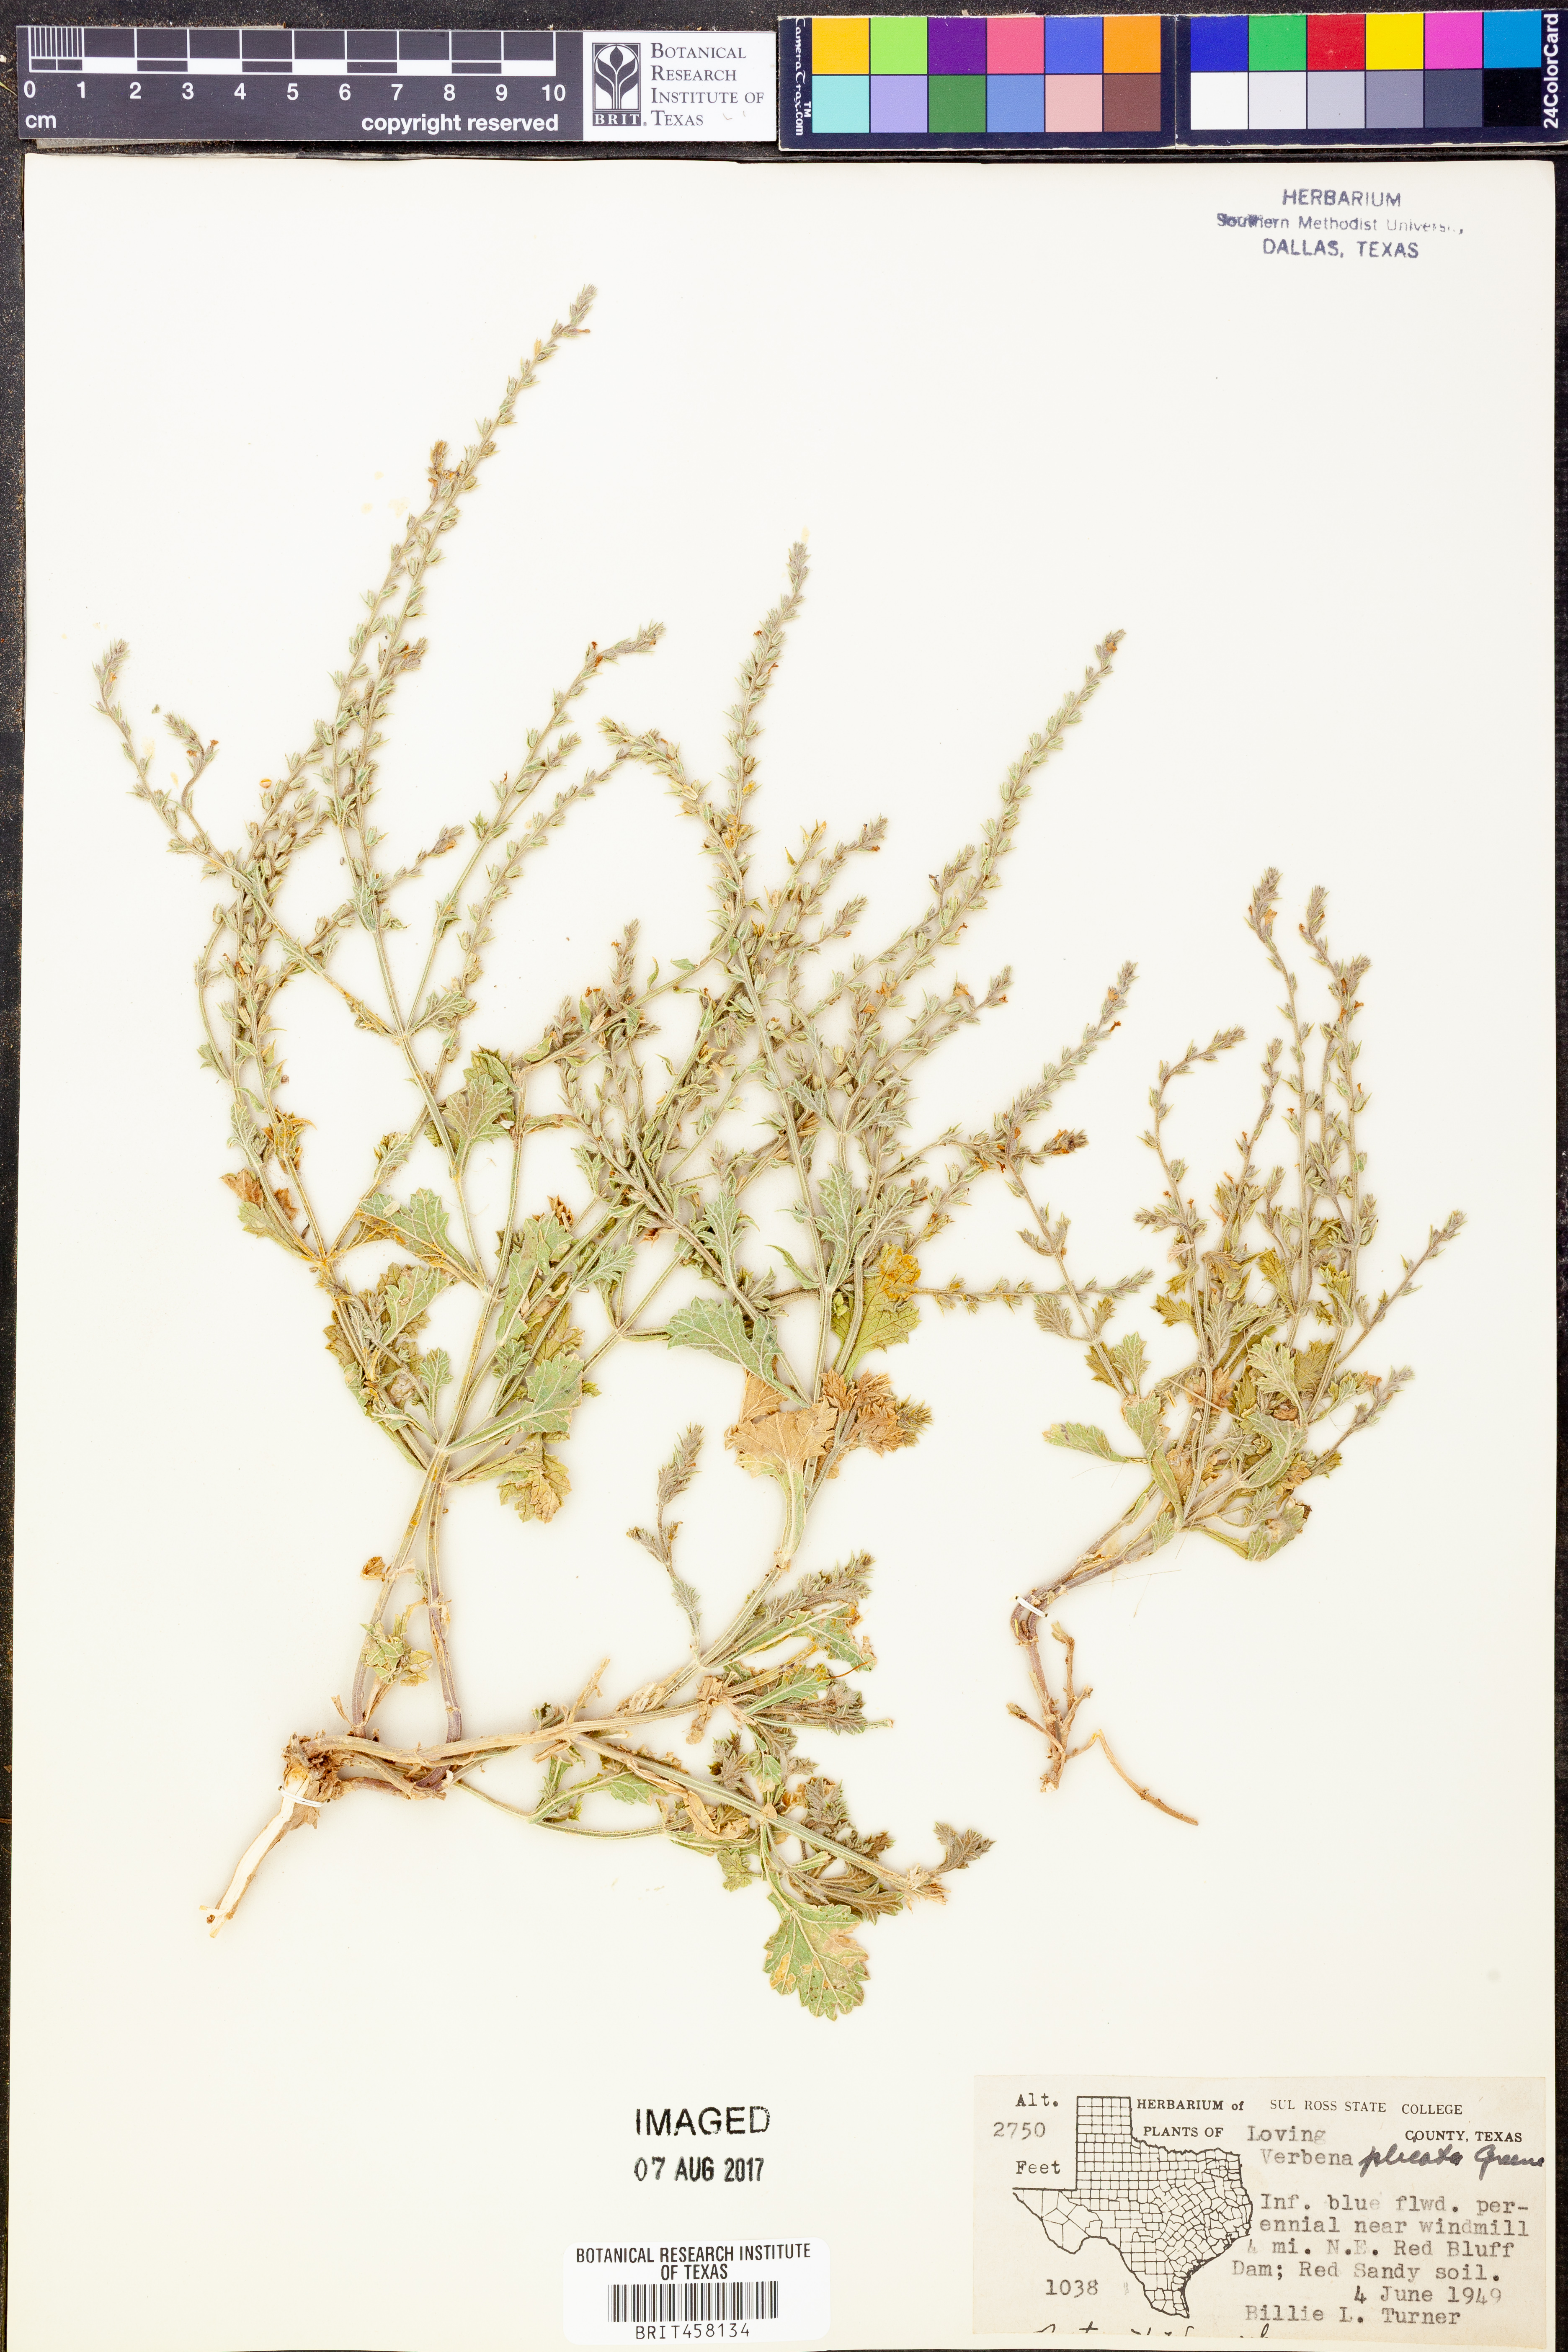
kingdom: Plantae
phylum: Tracheophyta
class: Magnoliopsida
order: Lamiales
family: Verbenaceae
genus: Verbena
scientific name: Verbena plicata
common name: Fan-leaf vervain
